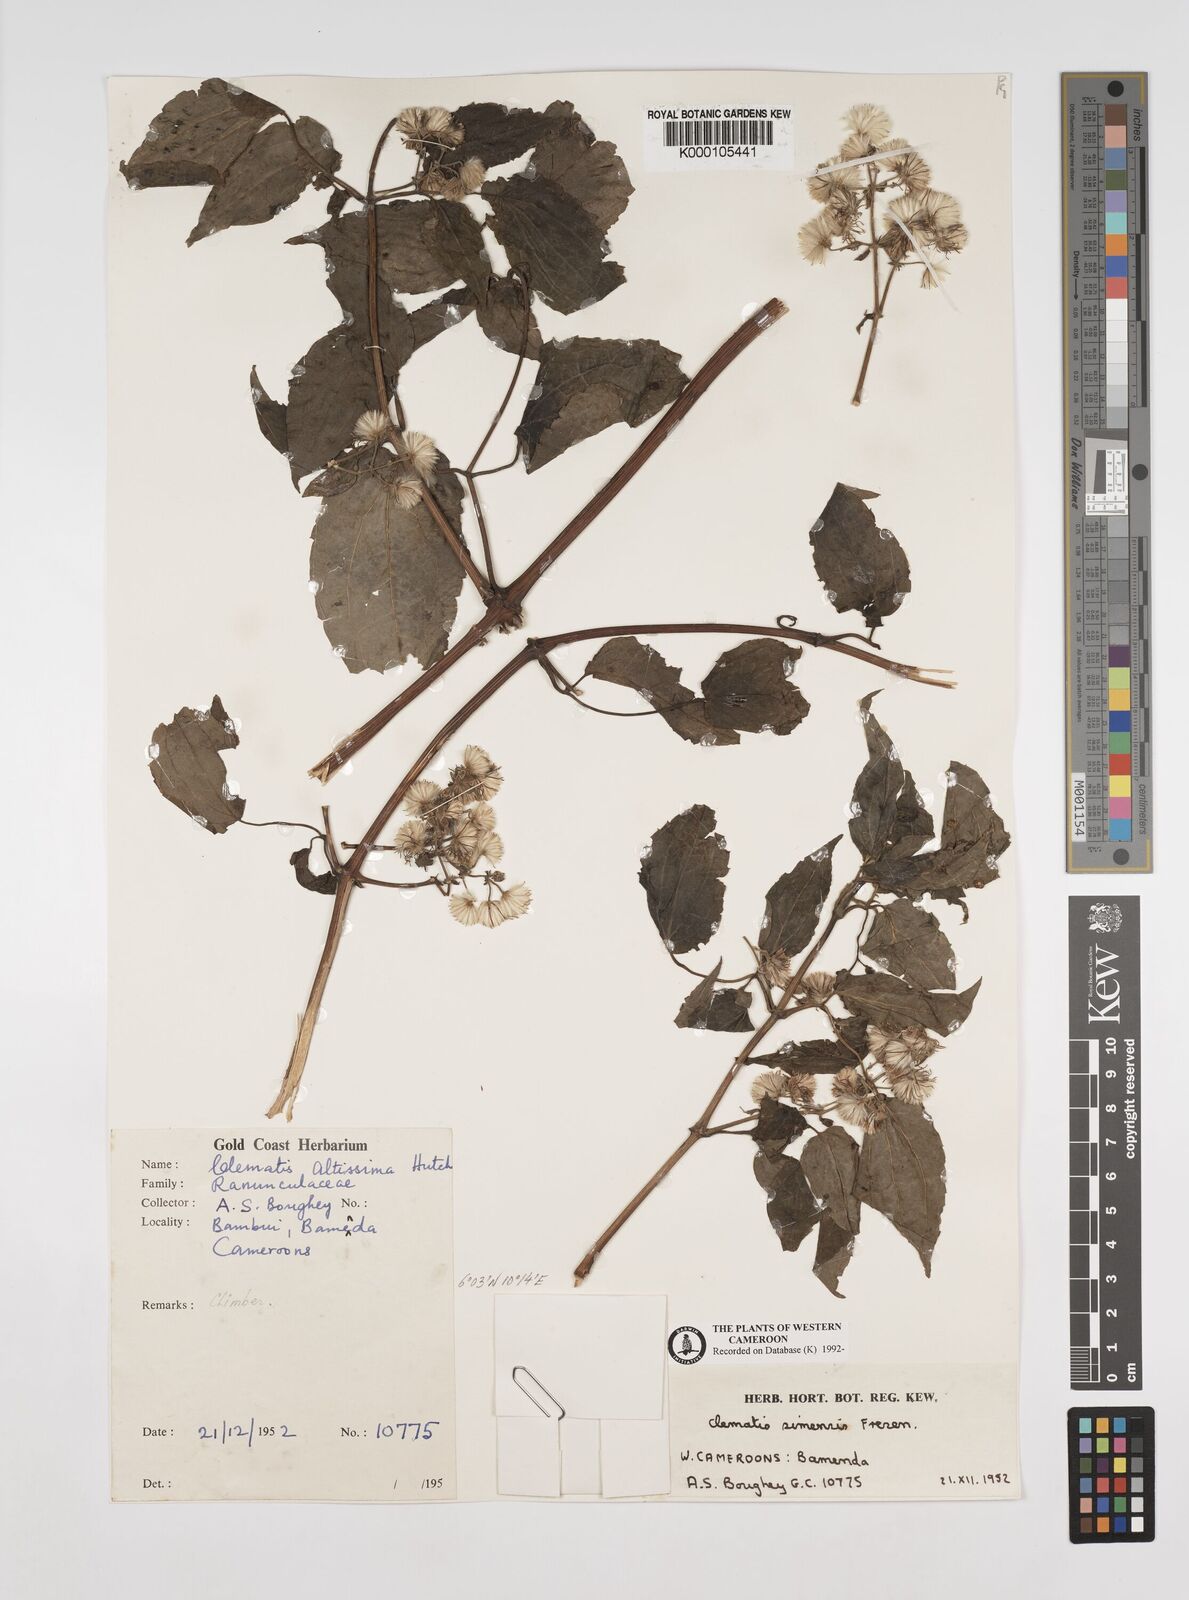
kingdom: Plantae
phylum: Tracheophyta
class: Magnoliopsida
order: Ranunculales
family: Ranunculaceae
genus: Clematis
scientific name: Clematis simensis
